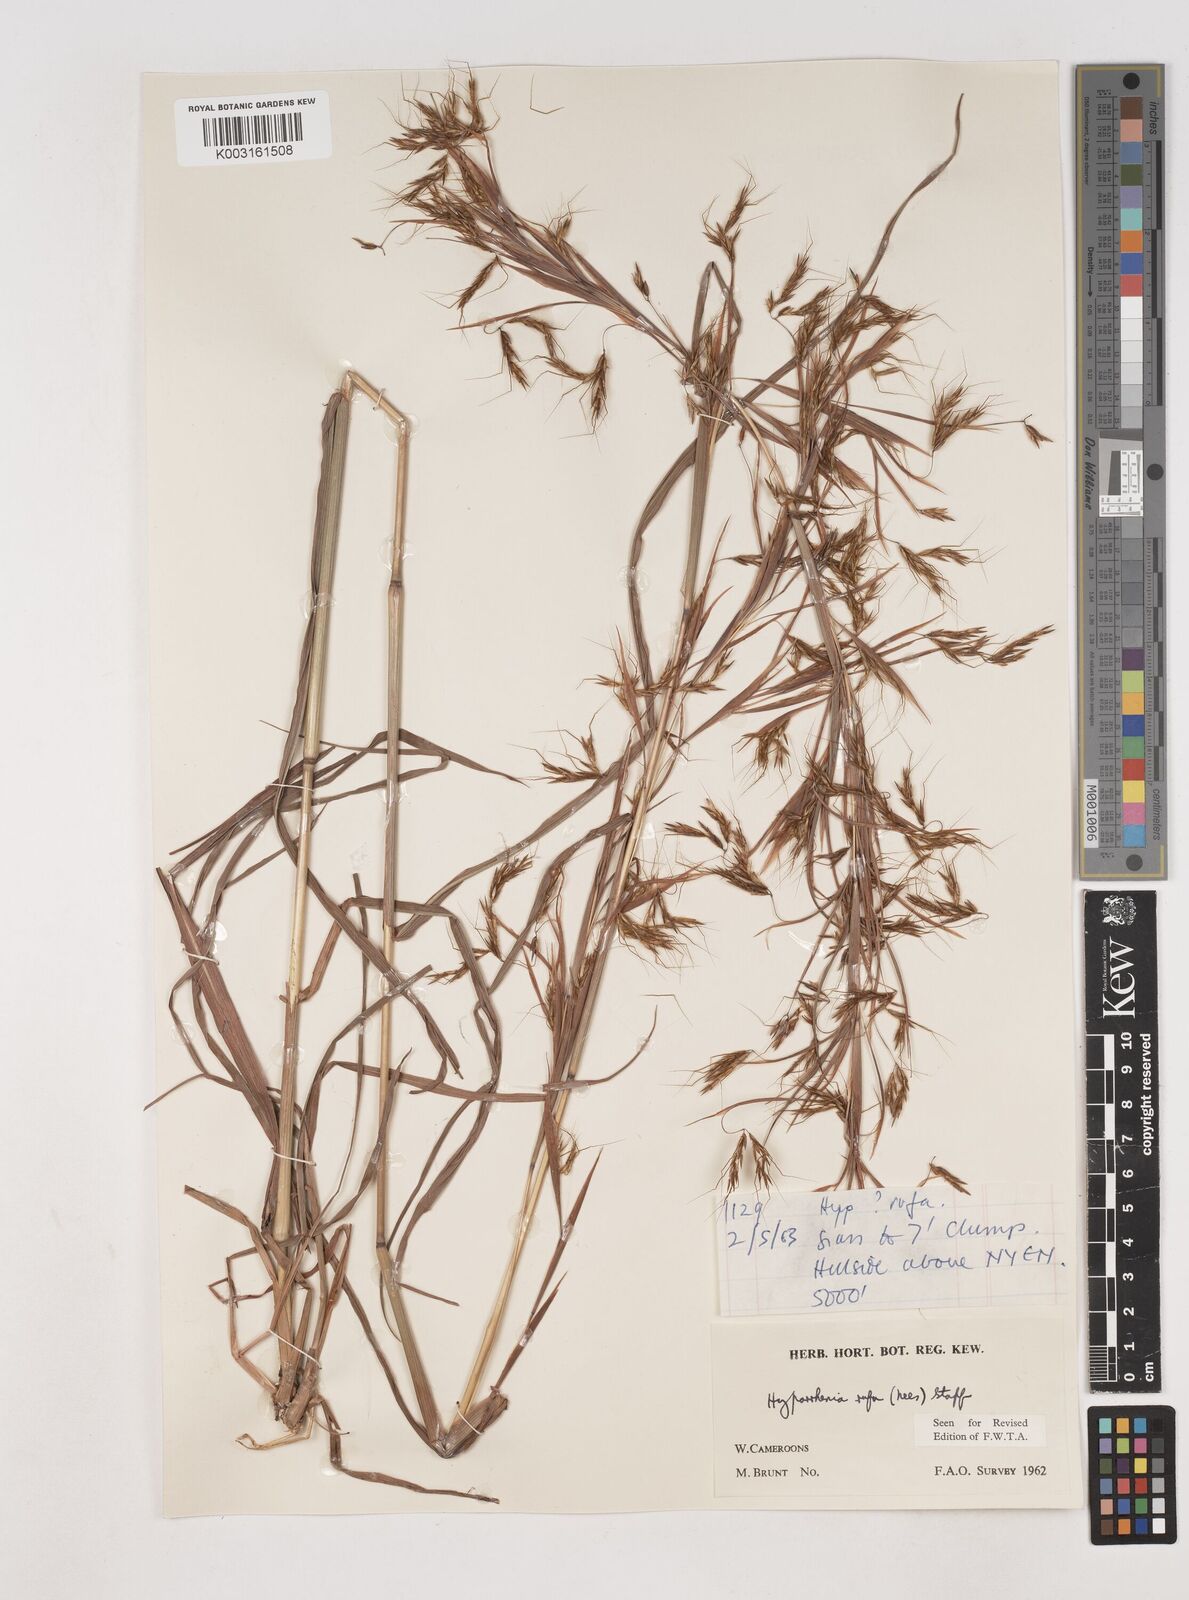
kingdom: Plantae
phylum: Tracheophyta
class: Liliopsida
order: Poales
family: Poaceae
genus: Hyparrhenia
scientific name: Hyparrhenia rufa
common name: Jaraguagrass
